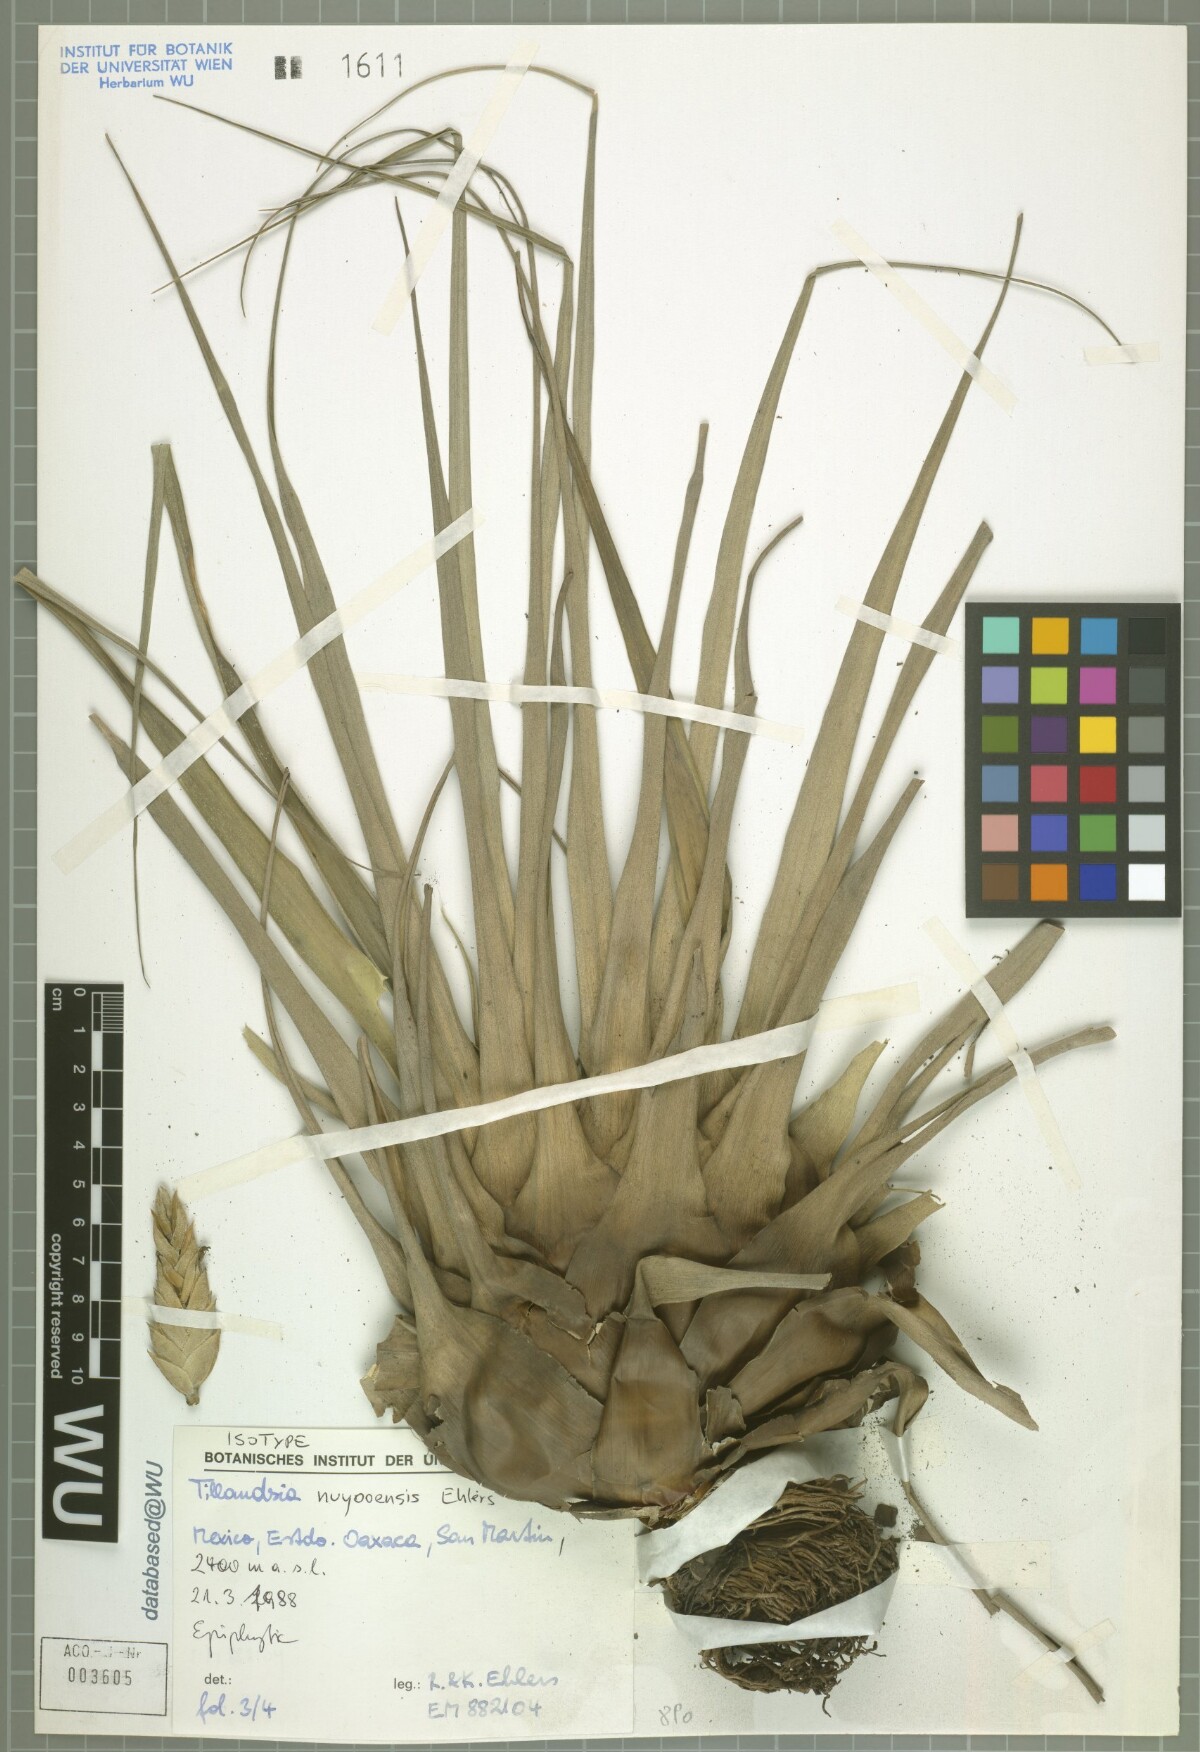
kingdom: Plantae
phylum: Tracheophyta
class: Liliopsida
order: Poales
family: Bromeliaceae
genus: Tillandsia
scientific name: Tillandsia nuyooensis
